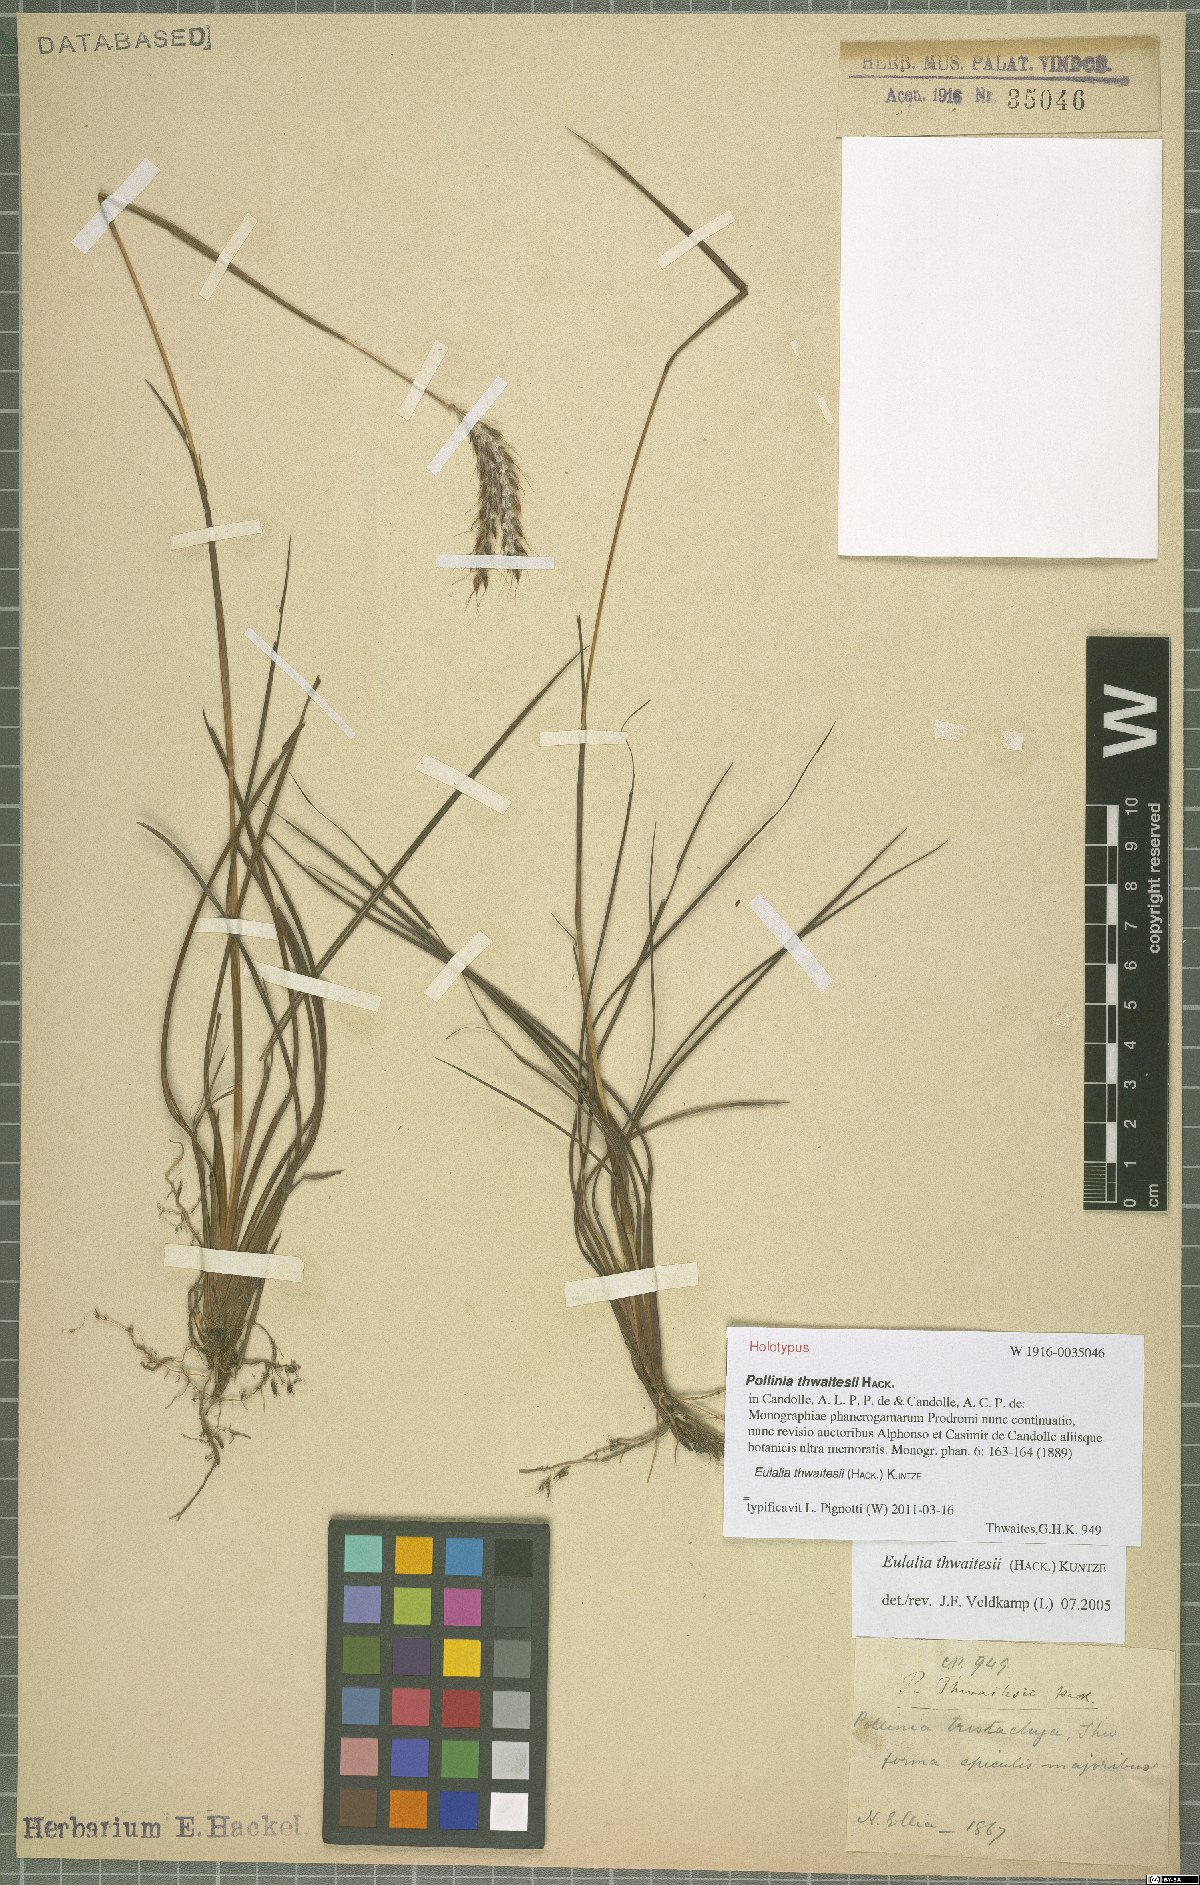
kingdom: Plantae
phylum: Tracheophyta
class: Liliopsida
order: Poales
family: Poaceae
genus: Eulalia
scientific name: Eulalia thwaitesii
